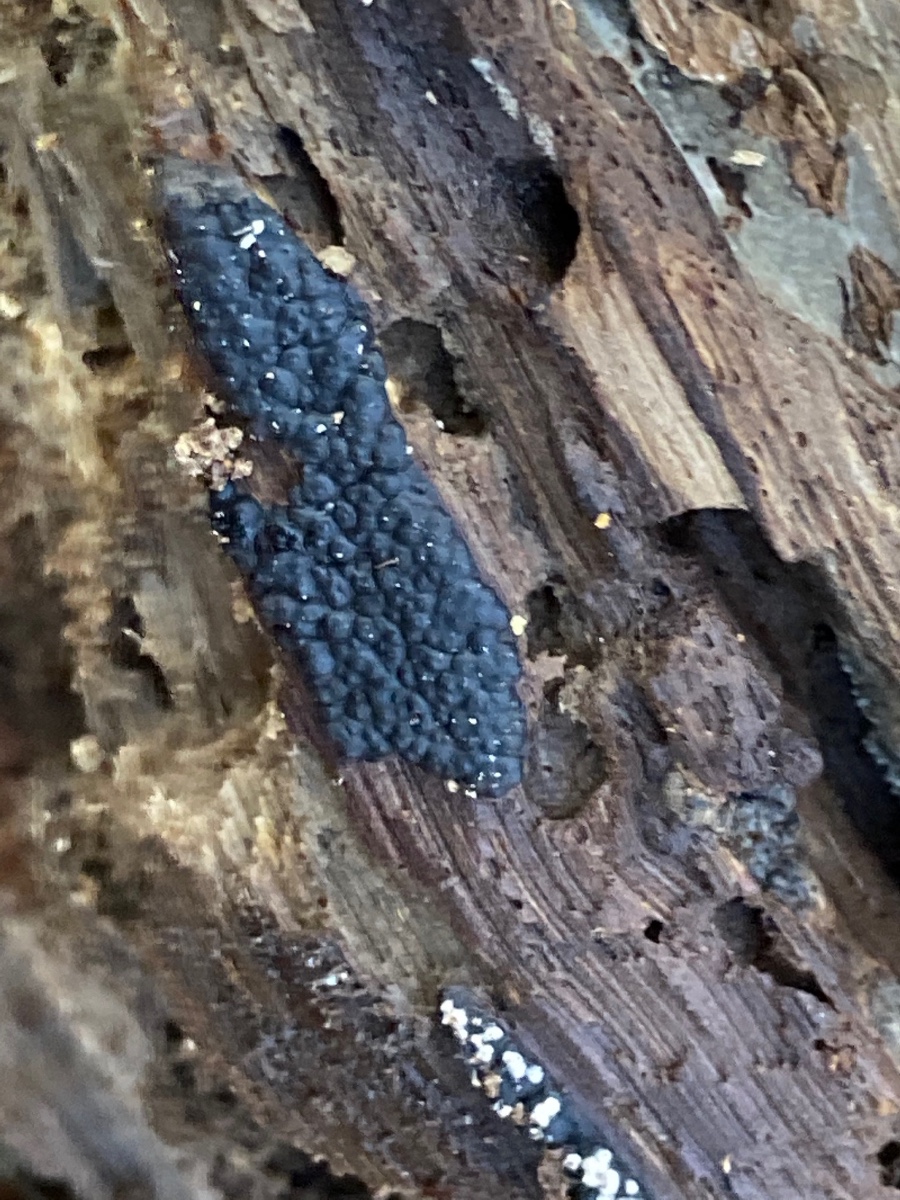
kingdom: Fungi
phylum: Ascomycota
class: Sordariomycetes
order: Xylariales
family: Xylariaceae
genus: Nemania
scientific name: Nemania serpens
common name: almindelig kuldyne
